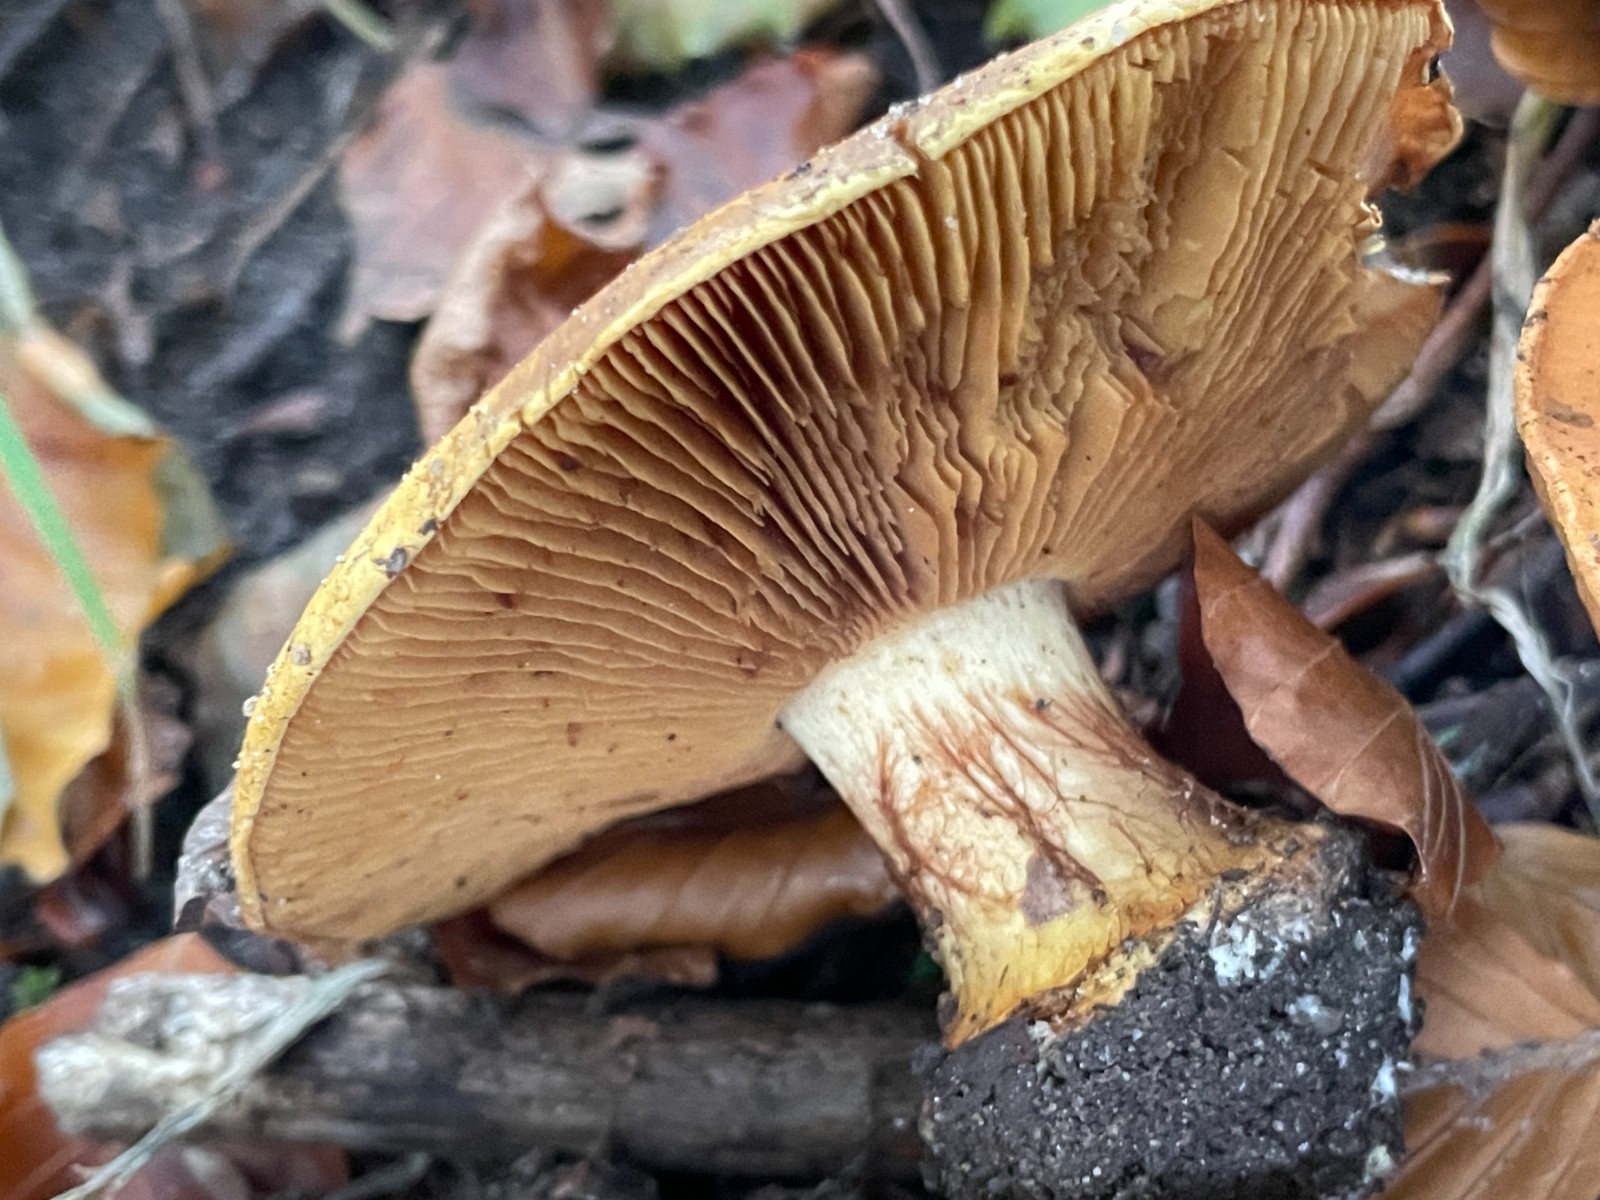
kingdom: Fungi
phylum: Basidiomycota
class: Agaricomycetes
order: Agaricales
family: Cortinariaceae
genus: Calonarius
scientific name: Calonarius
